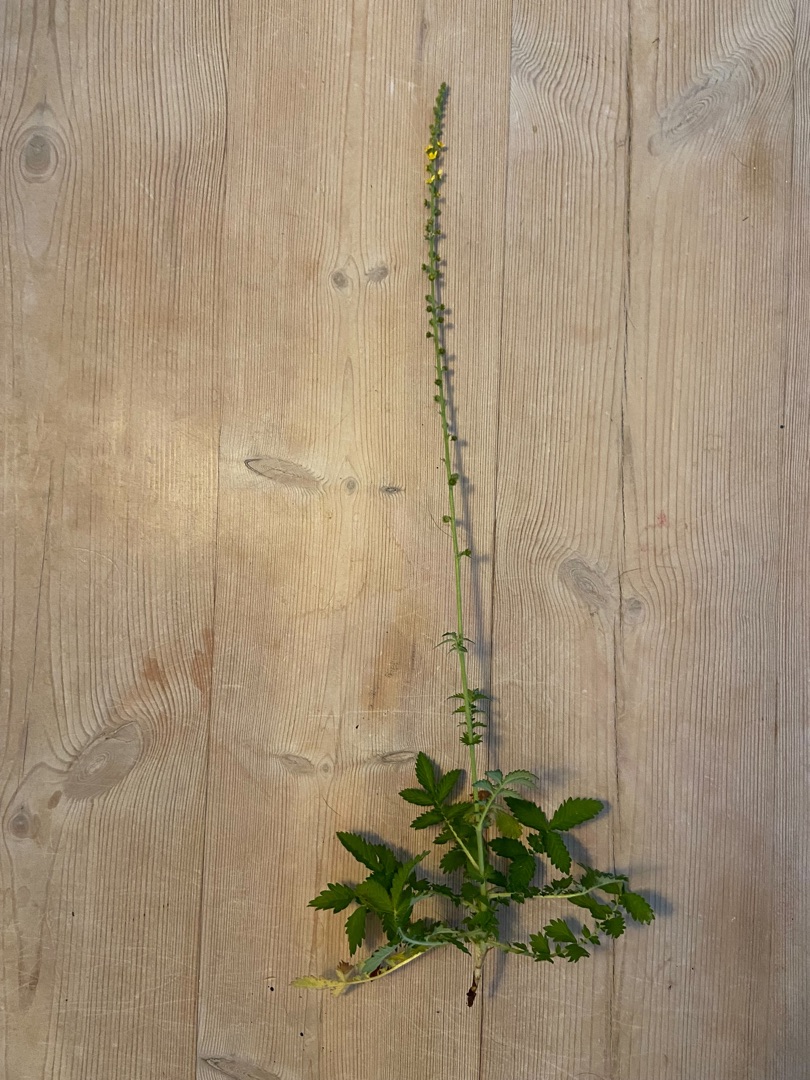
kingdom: Plantae
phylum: Tracheophyta
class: Magnoliopsida
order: Rosales
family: Rosaceae
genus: Agrimonia
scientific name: Agrimonia eupatoria
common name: Almindelig agermåne
